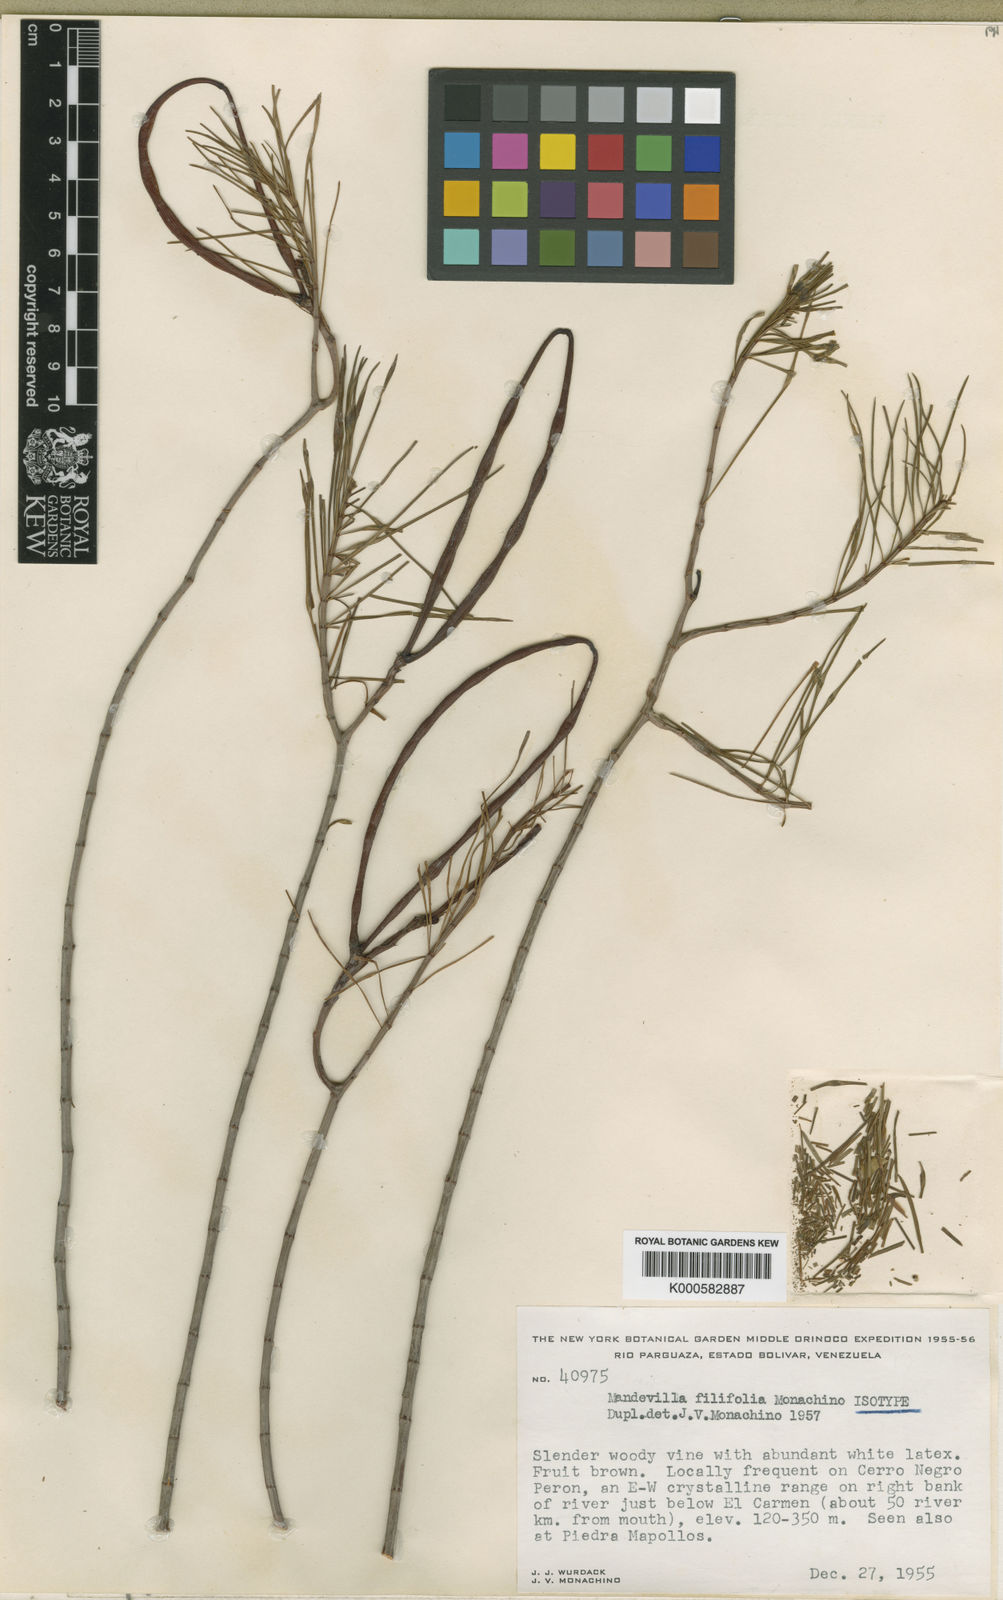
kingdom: Plantae
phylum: Tracheophyta
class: Magnoliopsida
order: Gentianales
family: Apocynaceae
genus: Mandevilla
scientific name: Mandevilla filifolia
